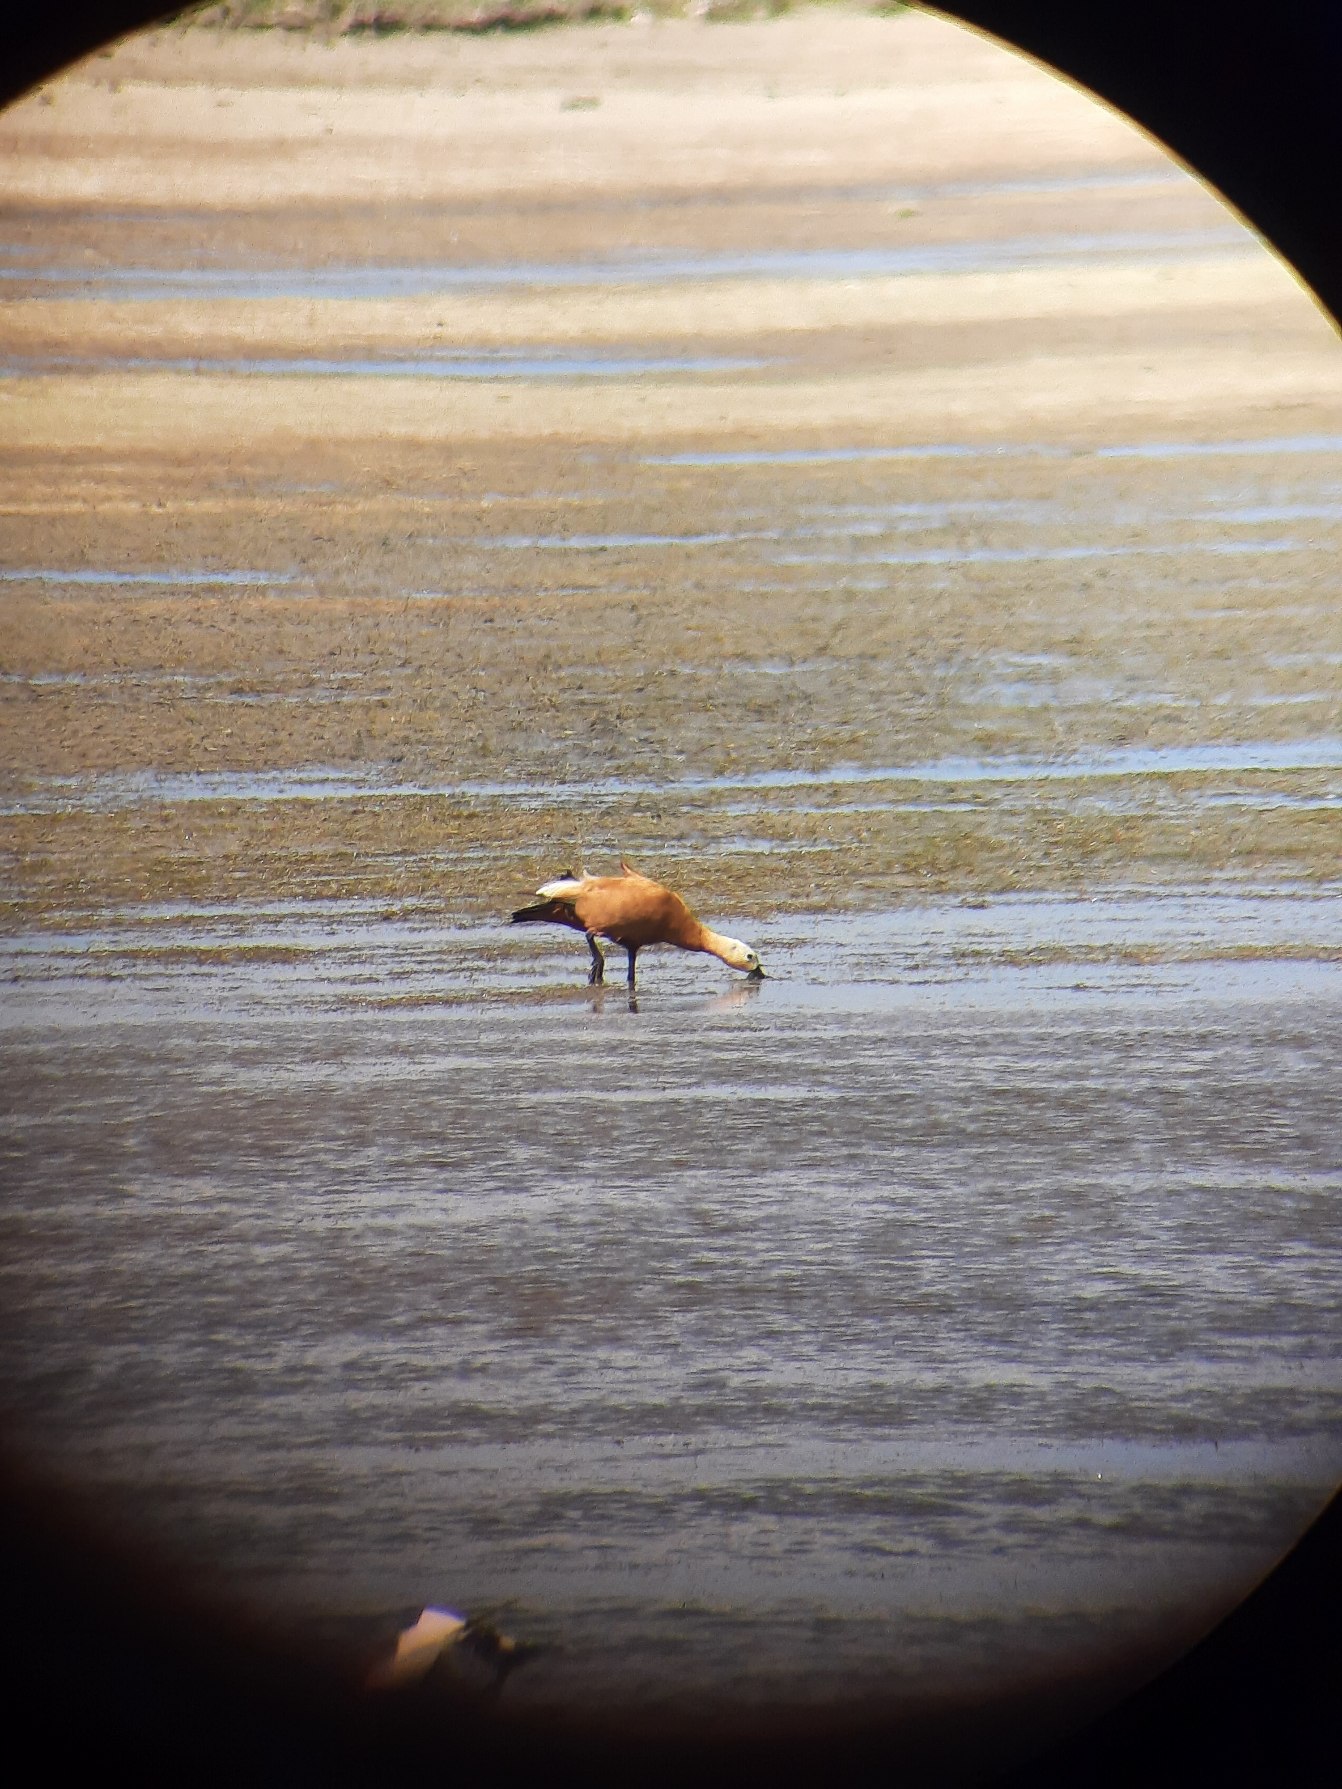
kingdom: Animalia
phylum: Chordata
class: Aves
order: Anseriformes
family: Anatidae
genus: Tadorna
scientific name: Tadorna ferruginea
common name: Rustand
